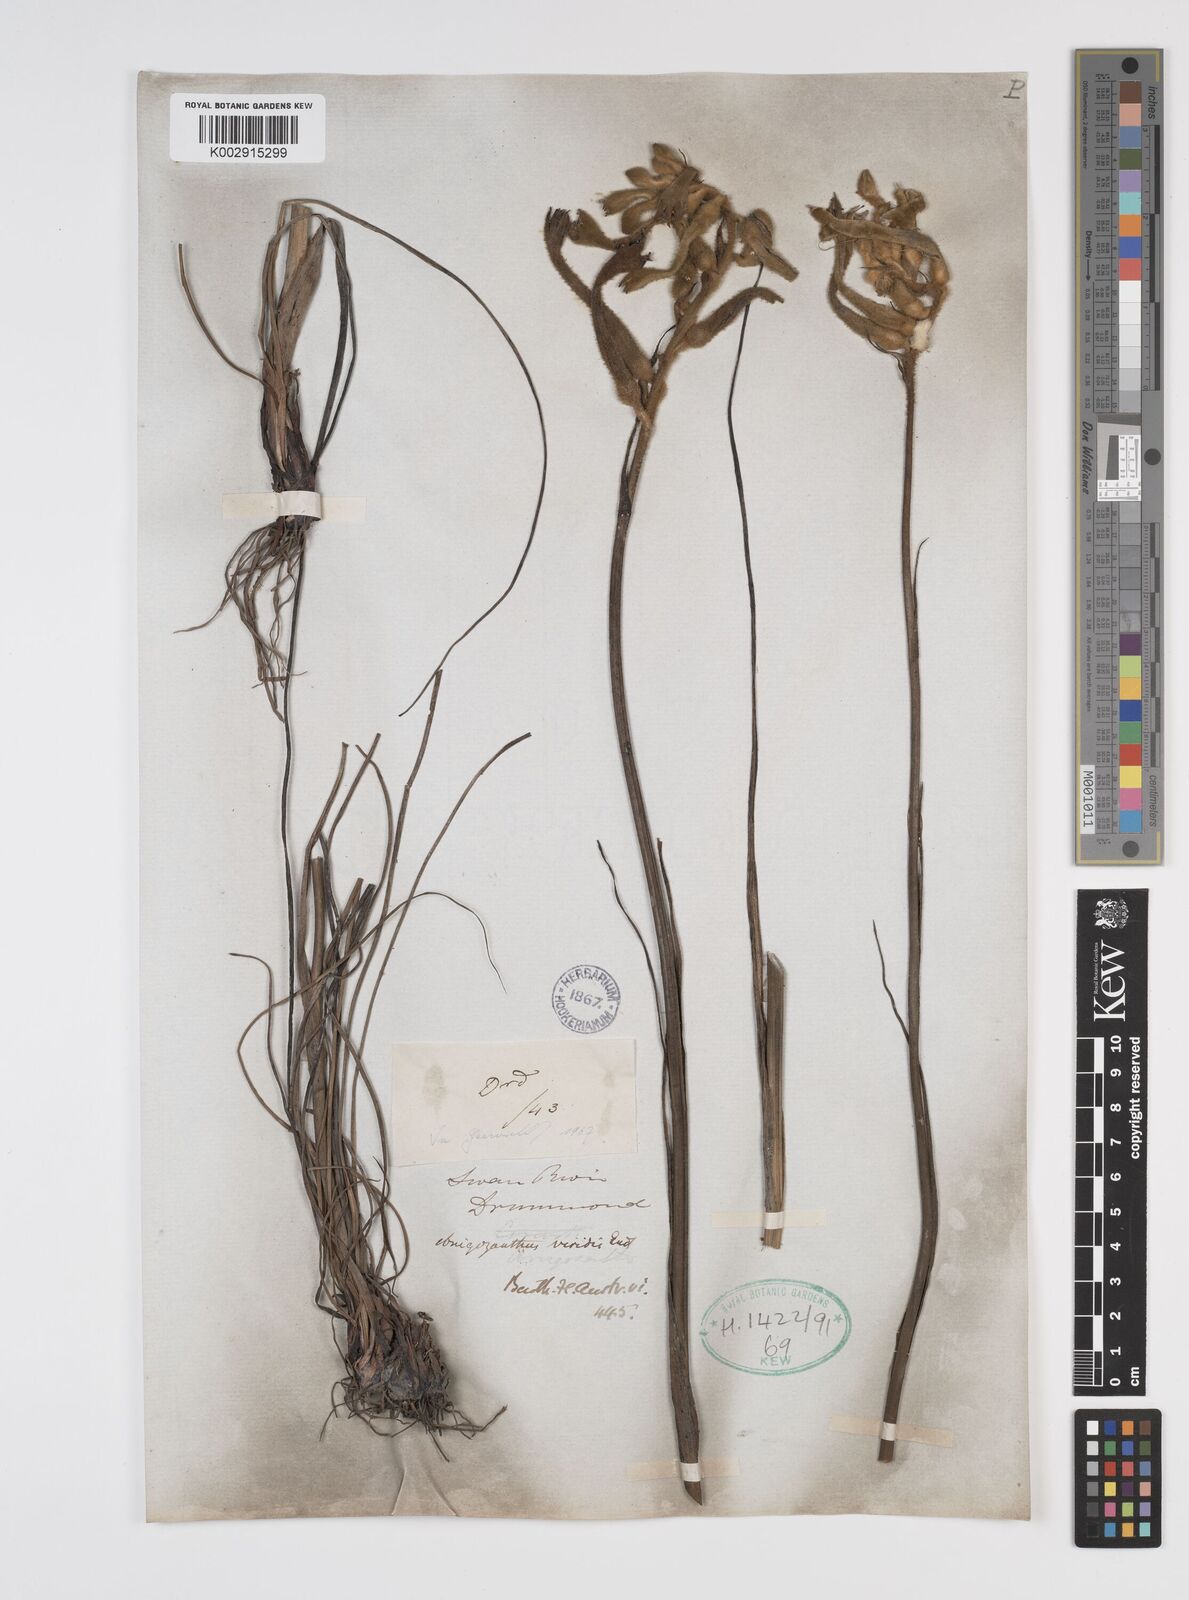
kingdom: Plantae
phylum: Tracheophyta
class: Liliopsida
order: Commelinales
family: Haemodoraceae
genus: Anigozanthos
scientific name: Anigozanthos viridis
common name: Green kangaroo-paw
